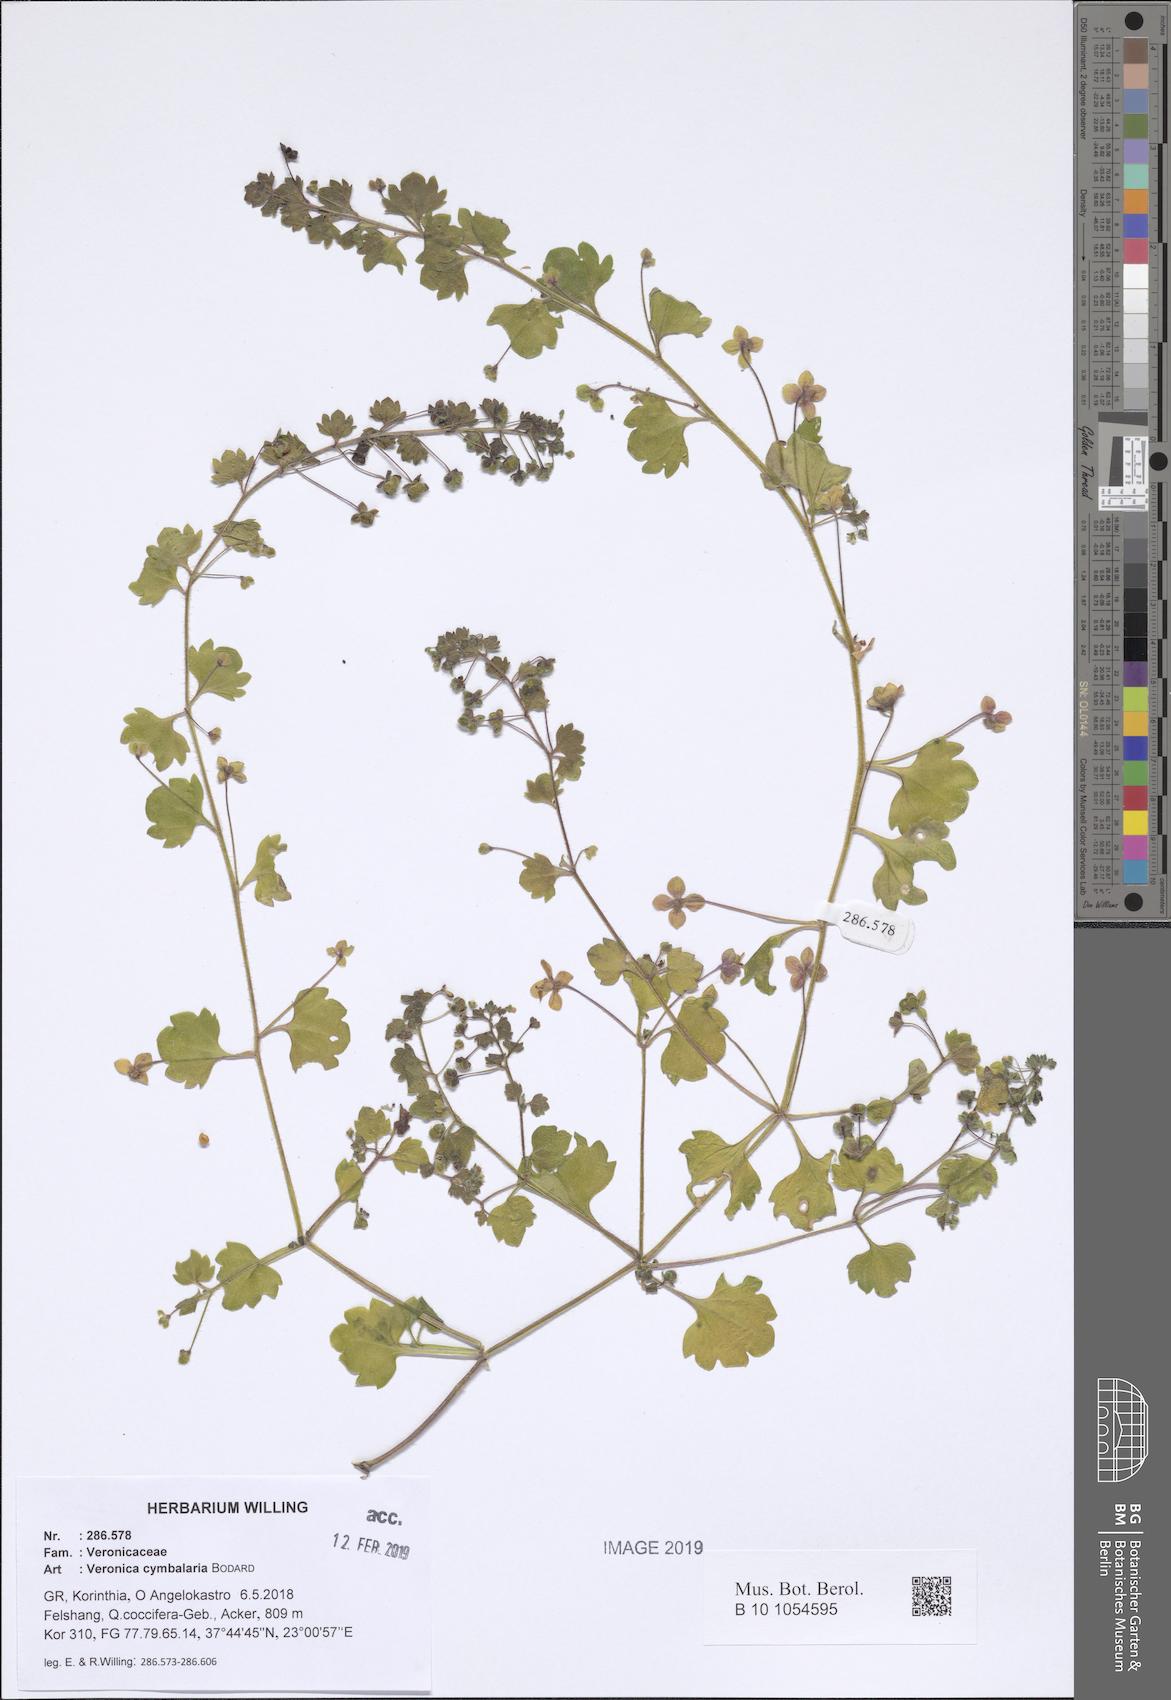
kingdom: Plantae
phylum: Tracheophyta
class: Magnoliopsida
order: Lamiales
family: Plantaginaceae
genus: Veronica
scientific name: Veronica cymbalaria
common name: Pale speedwell
